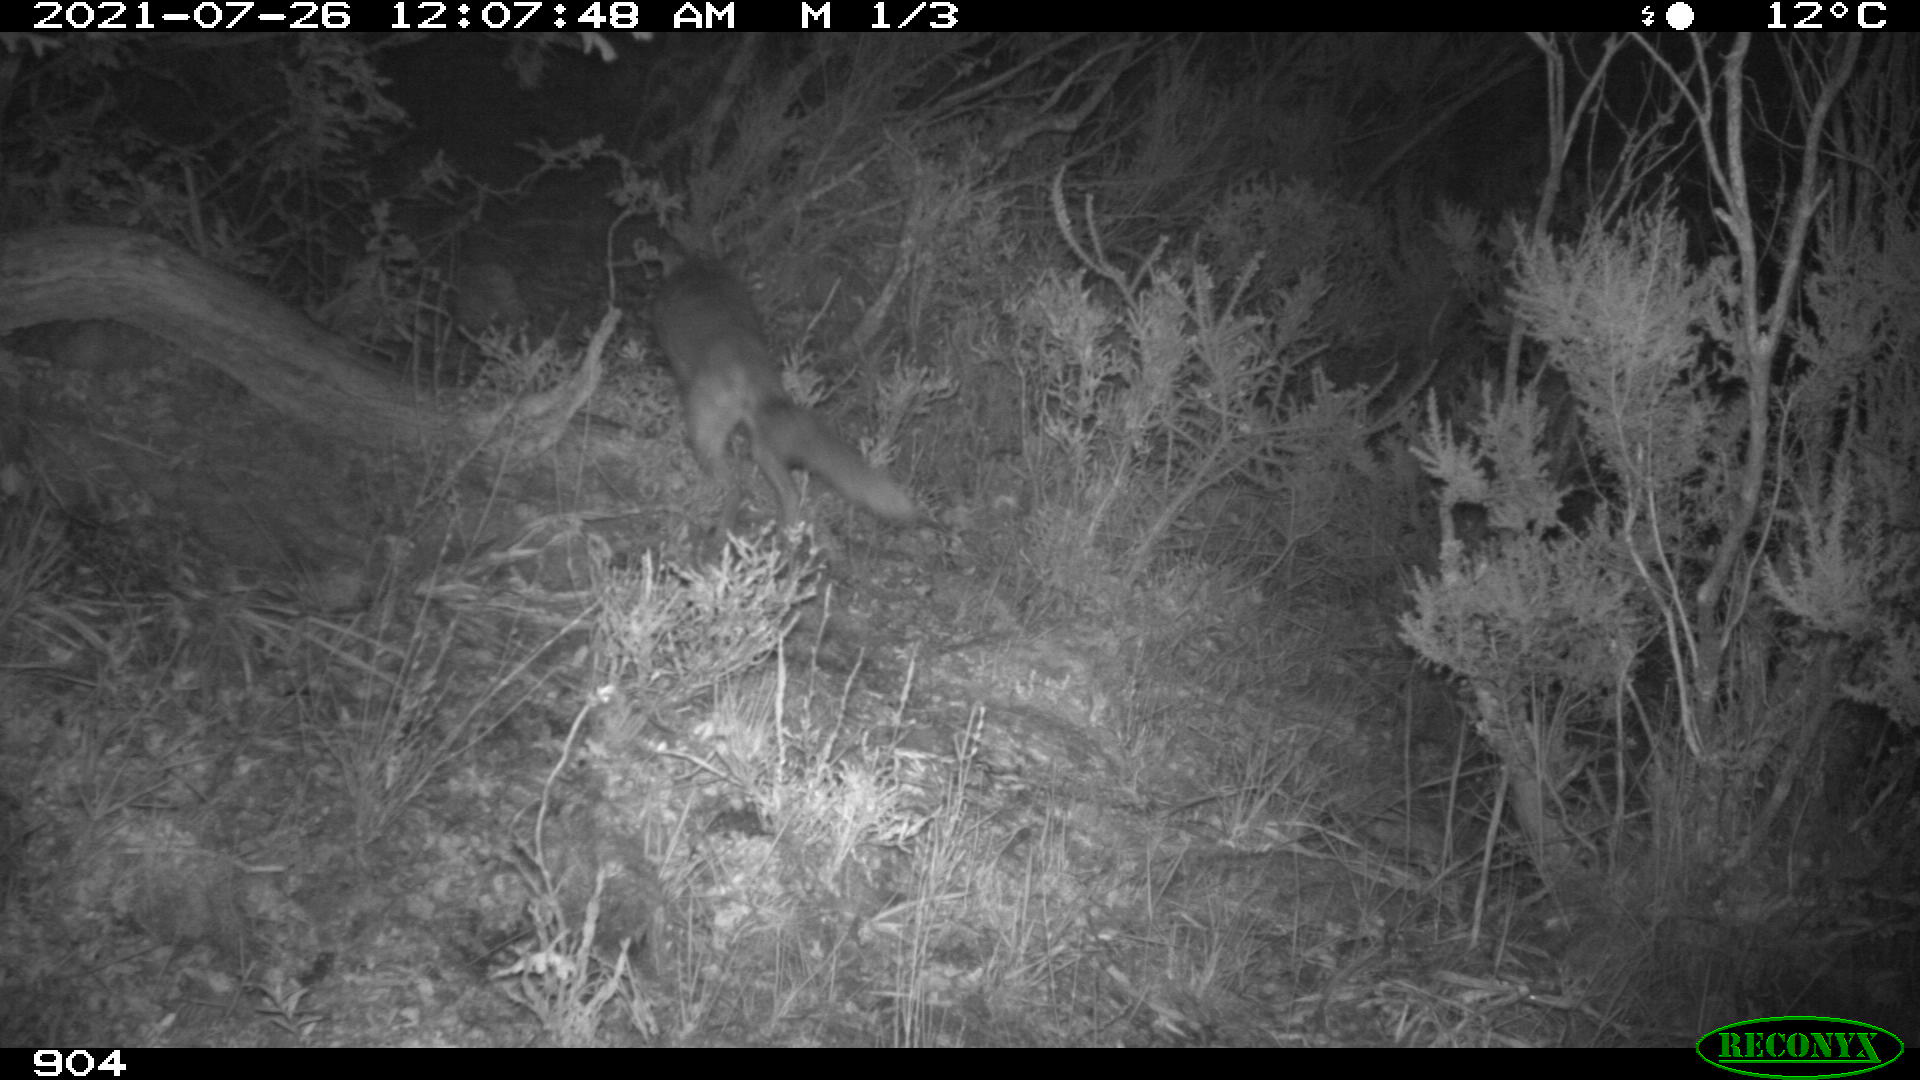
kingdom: Animalia
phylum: Chordata
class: Mammalia
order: Carnivora
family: Canidae
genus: Vulpes
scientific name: Vulpes vulpes
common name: Red fox
